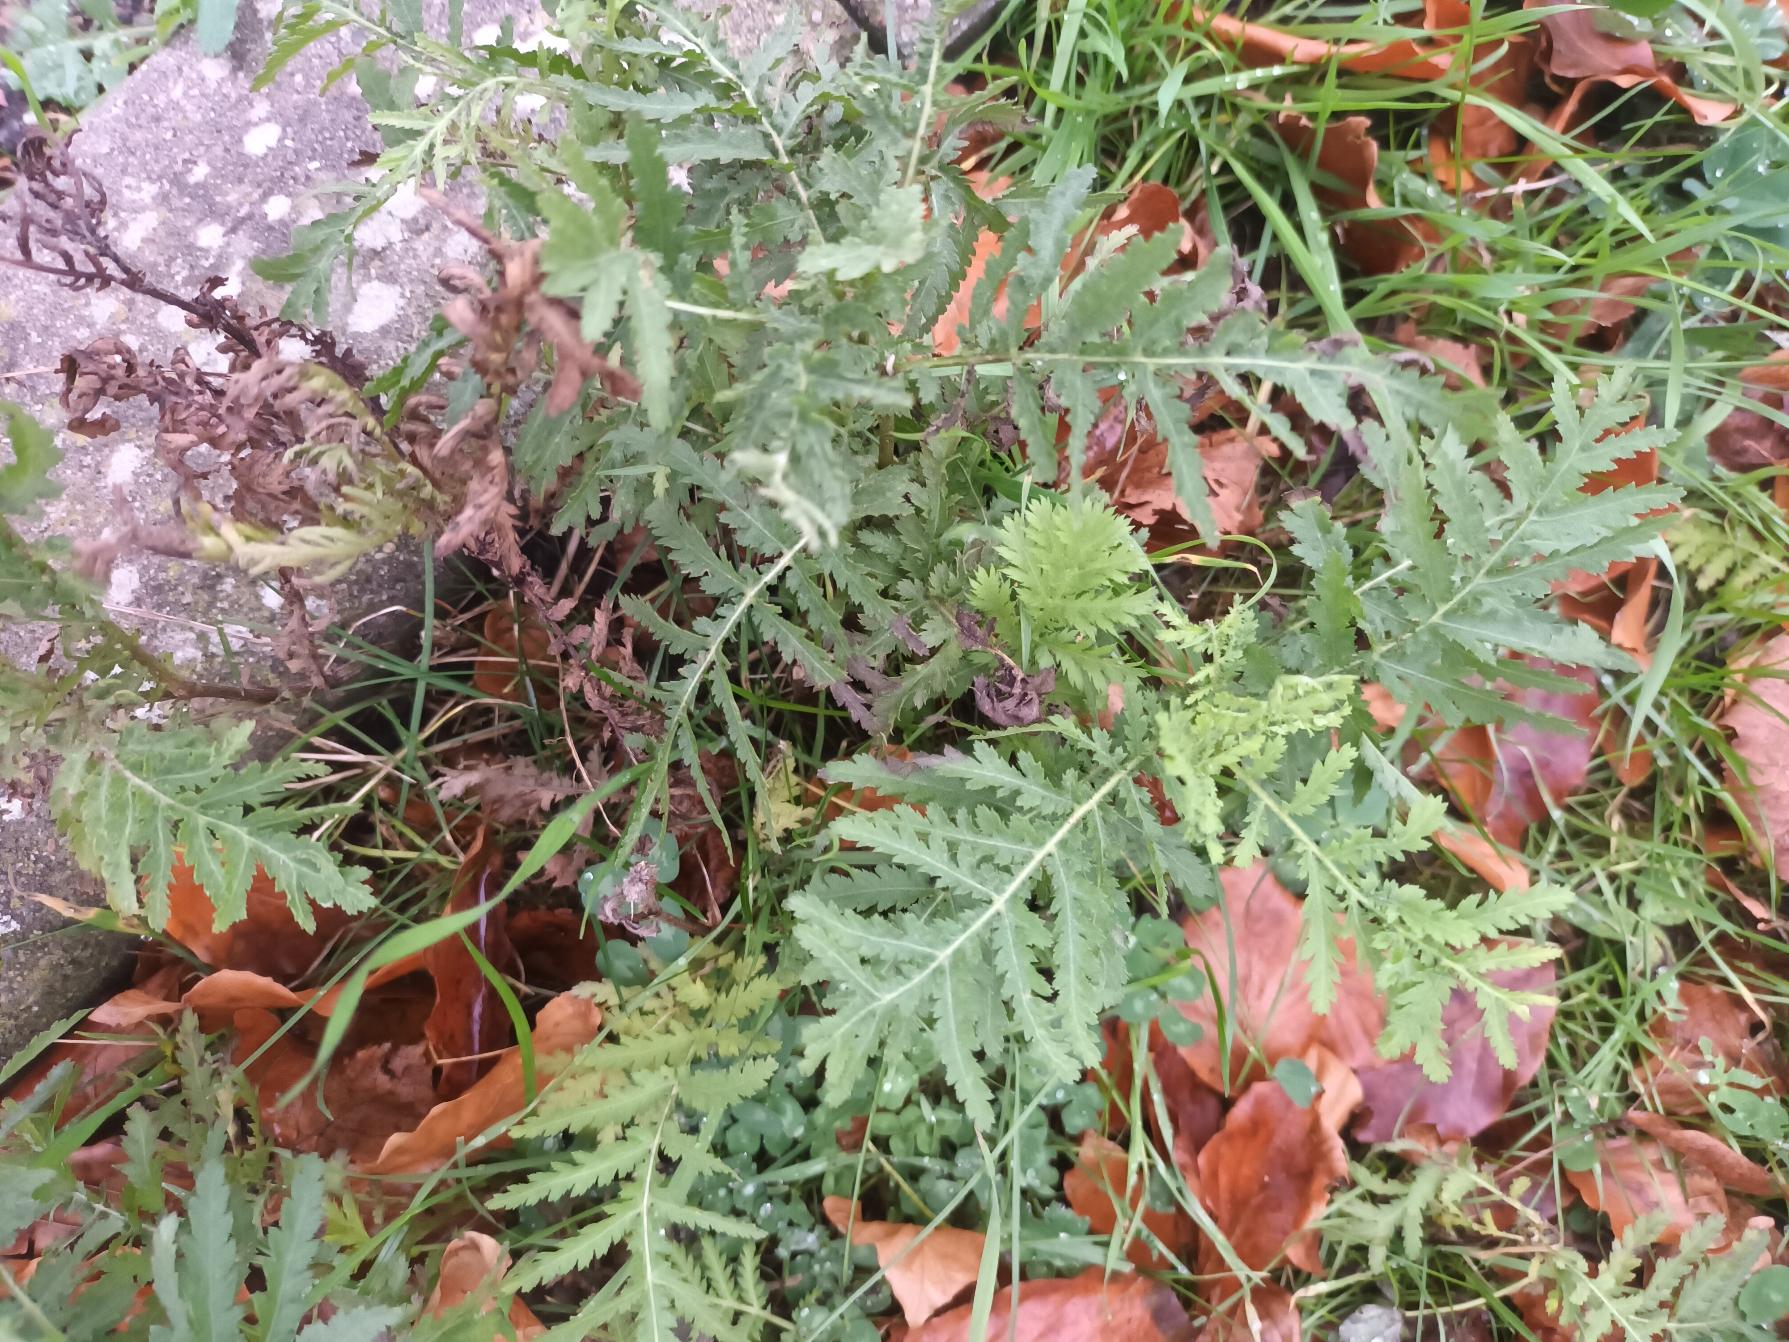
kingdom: Plantae
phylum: Tracheophyta
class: Magnoliopsida
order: Asterales
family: Asteraceae
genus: Tanacetum
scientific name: Tanacetum vulgare
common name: Rejnfan
